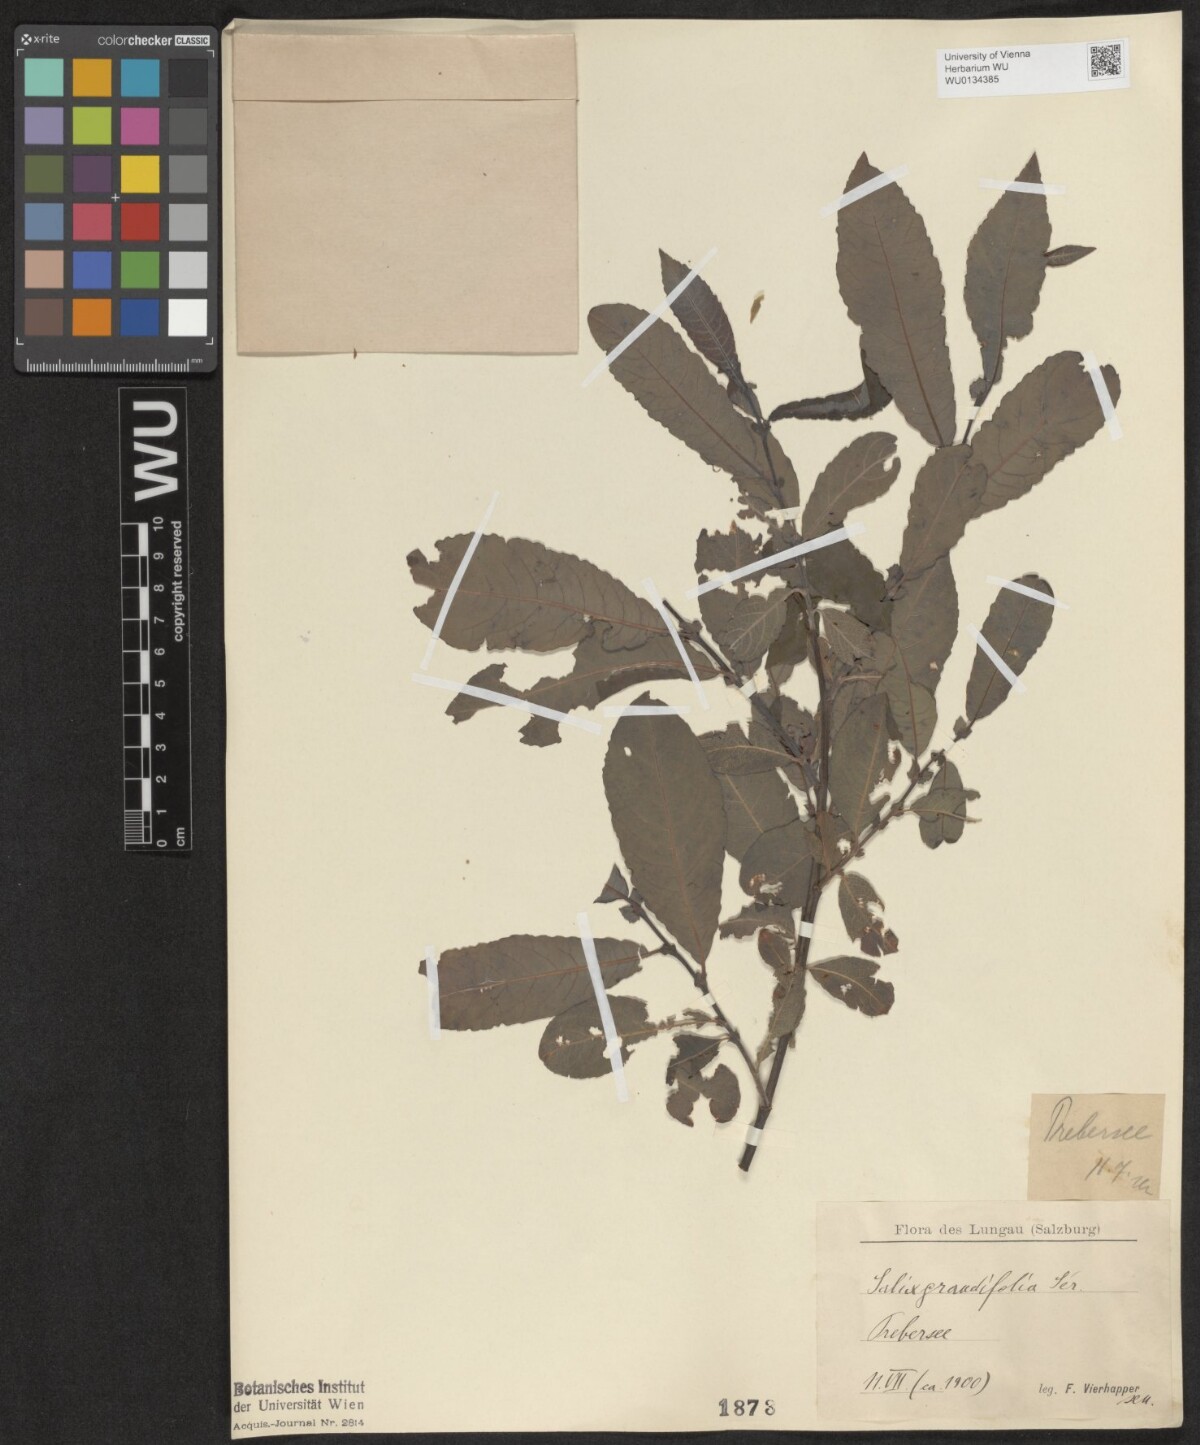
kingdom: Plantae
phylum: Tracheophyta
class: Magnoliopsida
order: Malpighiales
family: Salicaceae
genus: Salix
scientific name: Salix appendiculata
